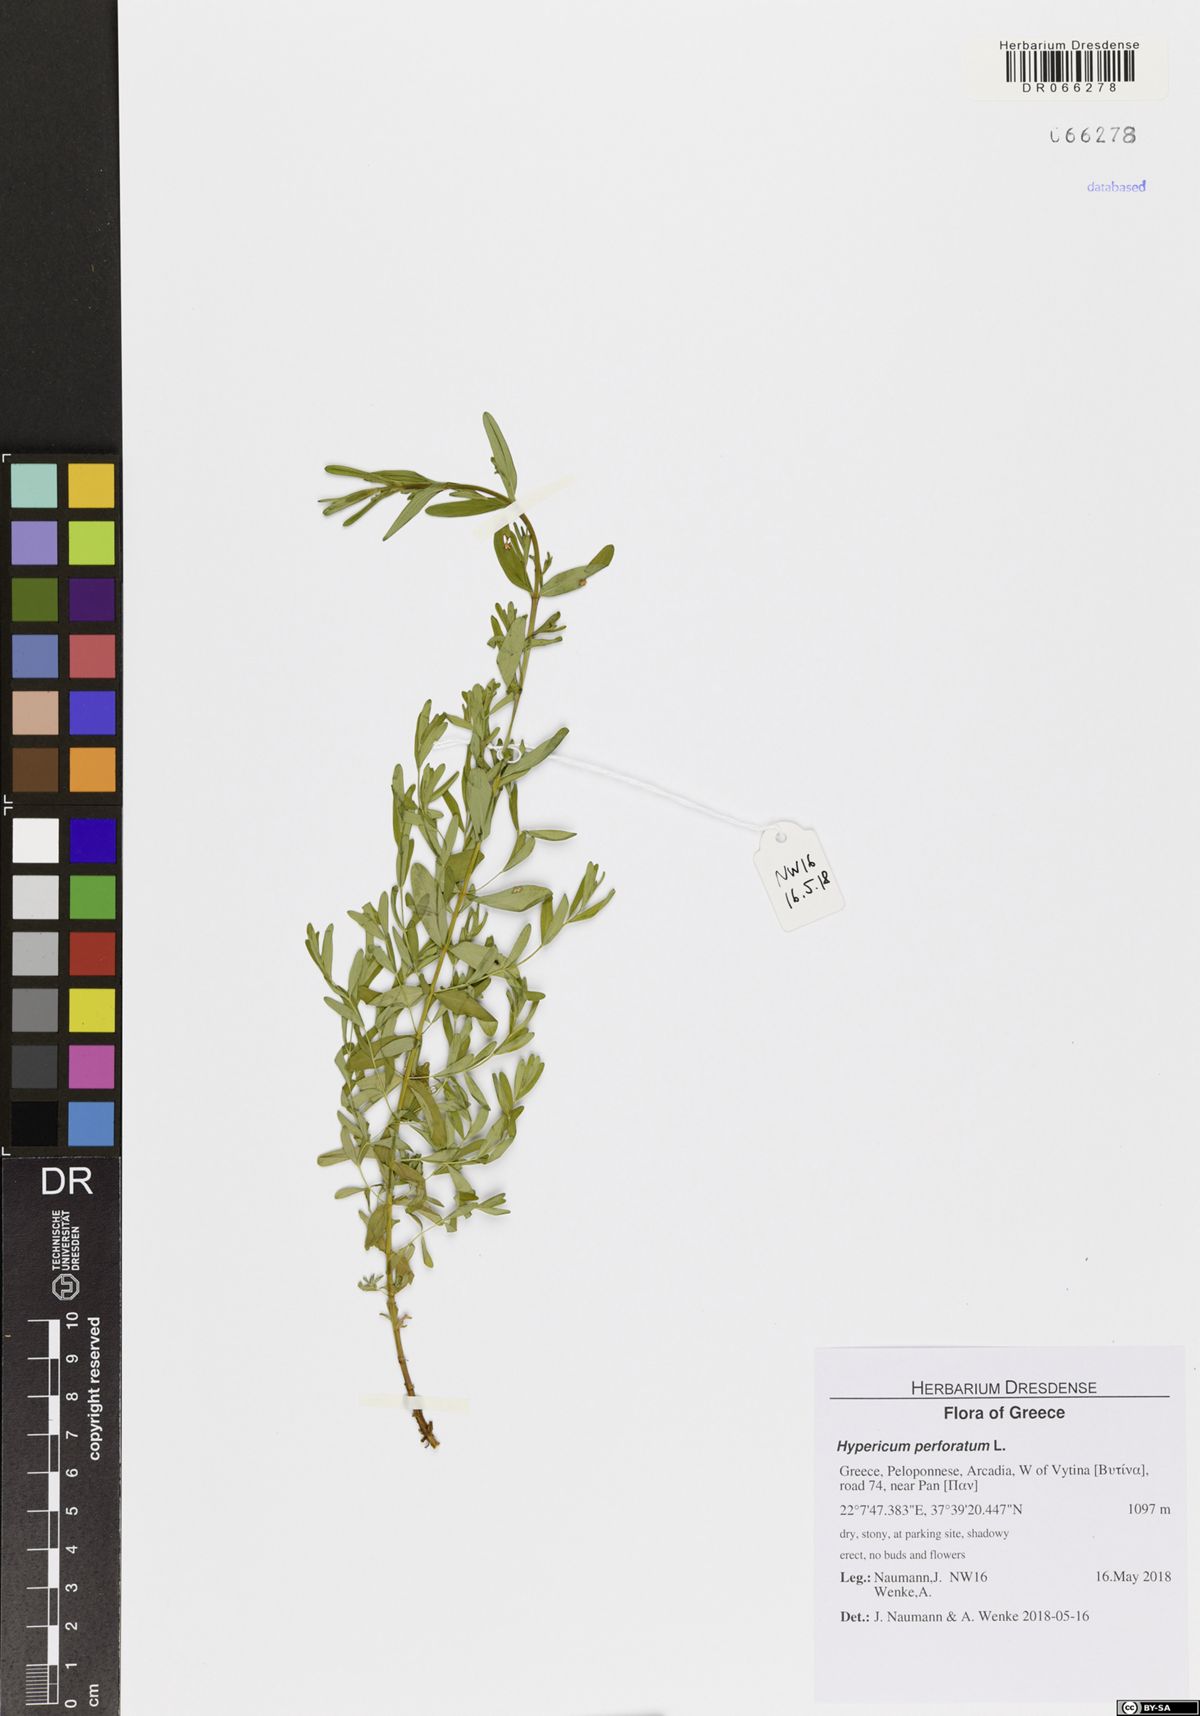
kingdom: Plantae
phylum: Tracheophyta
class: Magnoliopsida
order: Malpighiales
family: Hypericaceae
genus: Hypericum
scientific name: Hypericum perforatum
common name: Common st. johnswort
